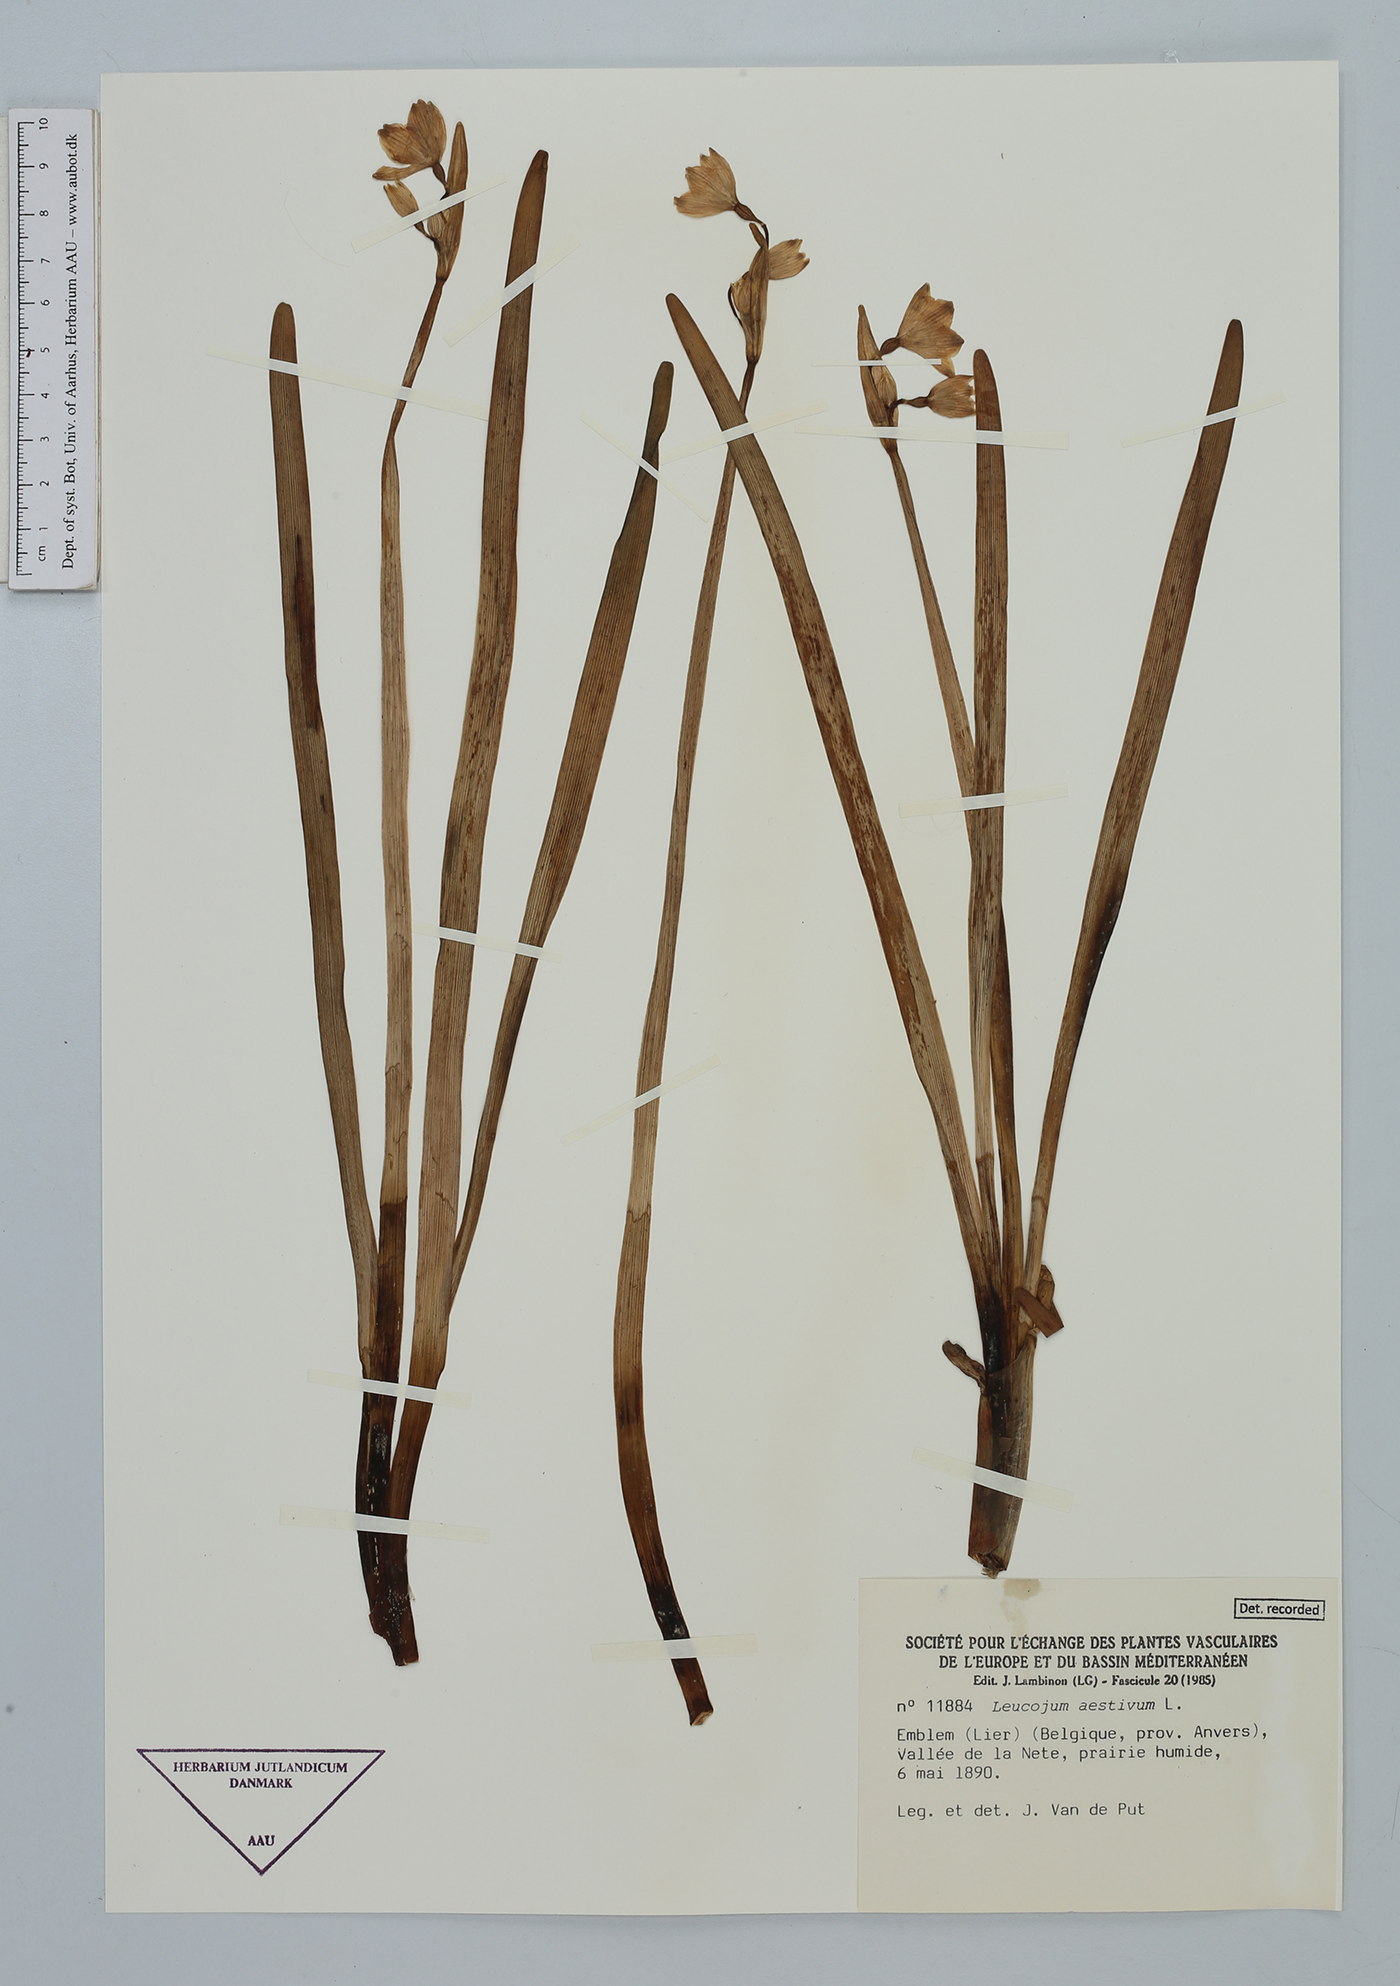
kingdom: Plantae
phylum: Tracheophyta
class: Liliopsida
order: Asparagales
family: Amaryllidaceae
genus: Leucojum
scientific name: Leucojum aestivum
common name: Summer snowflake
